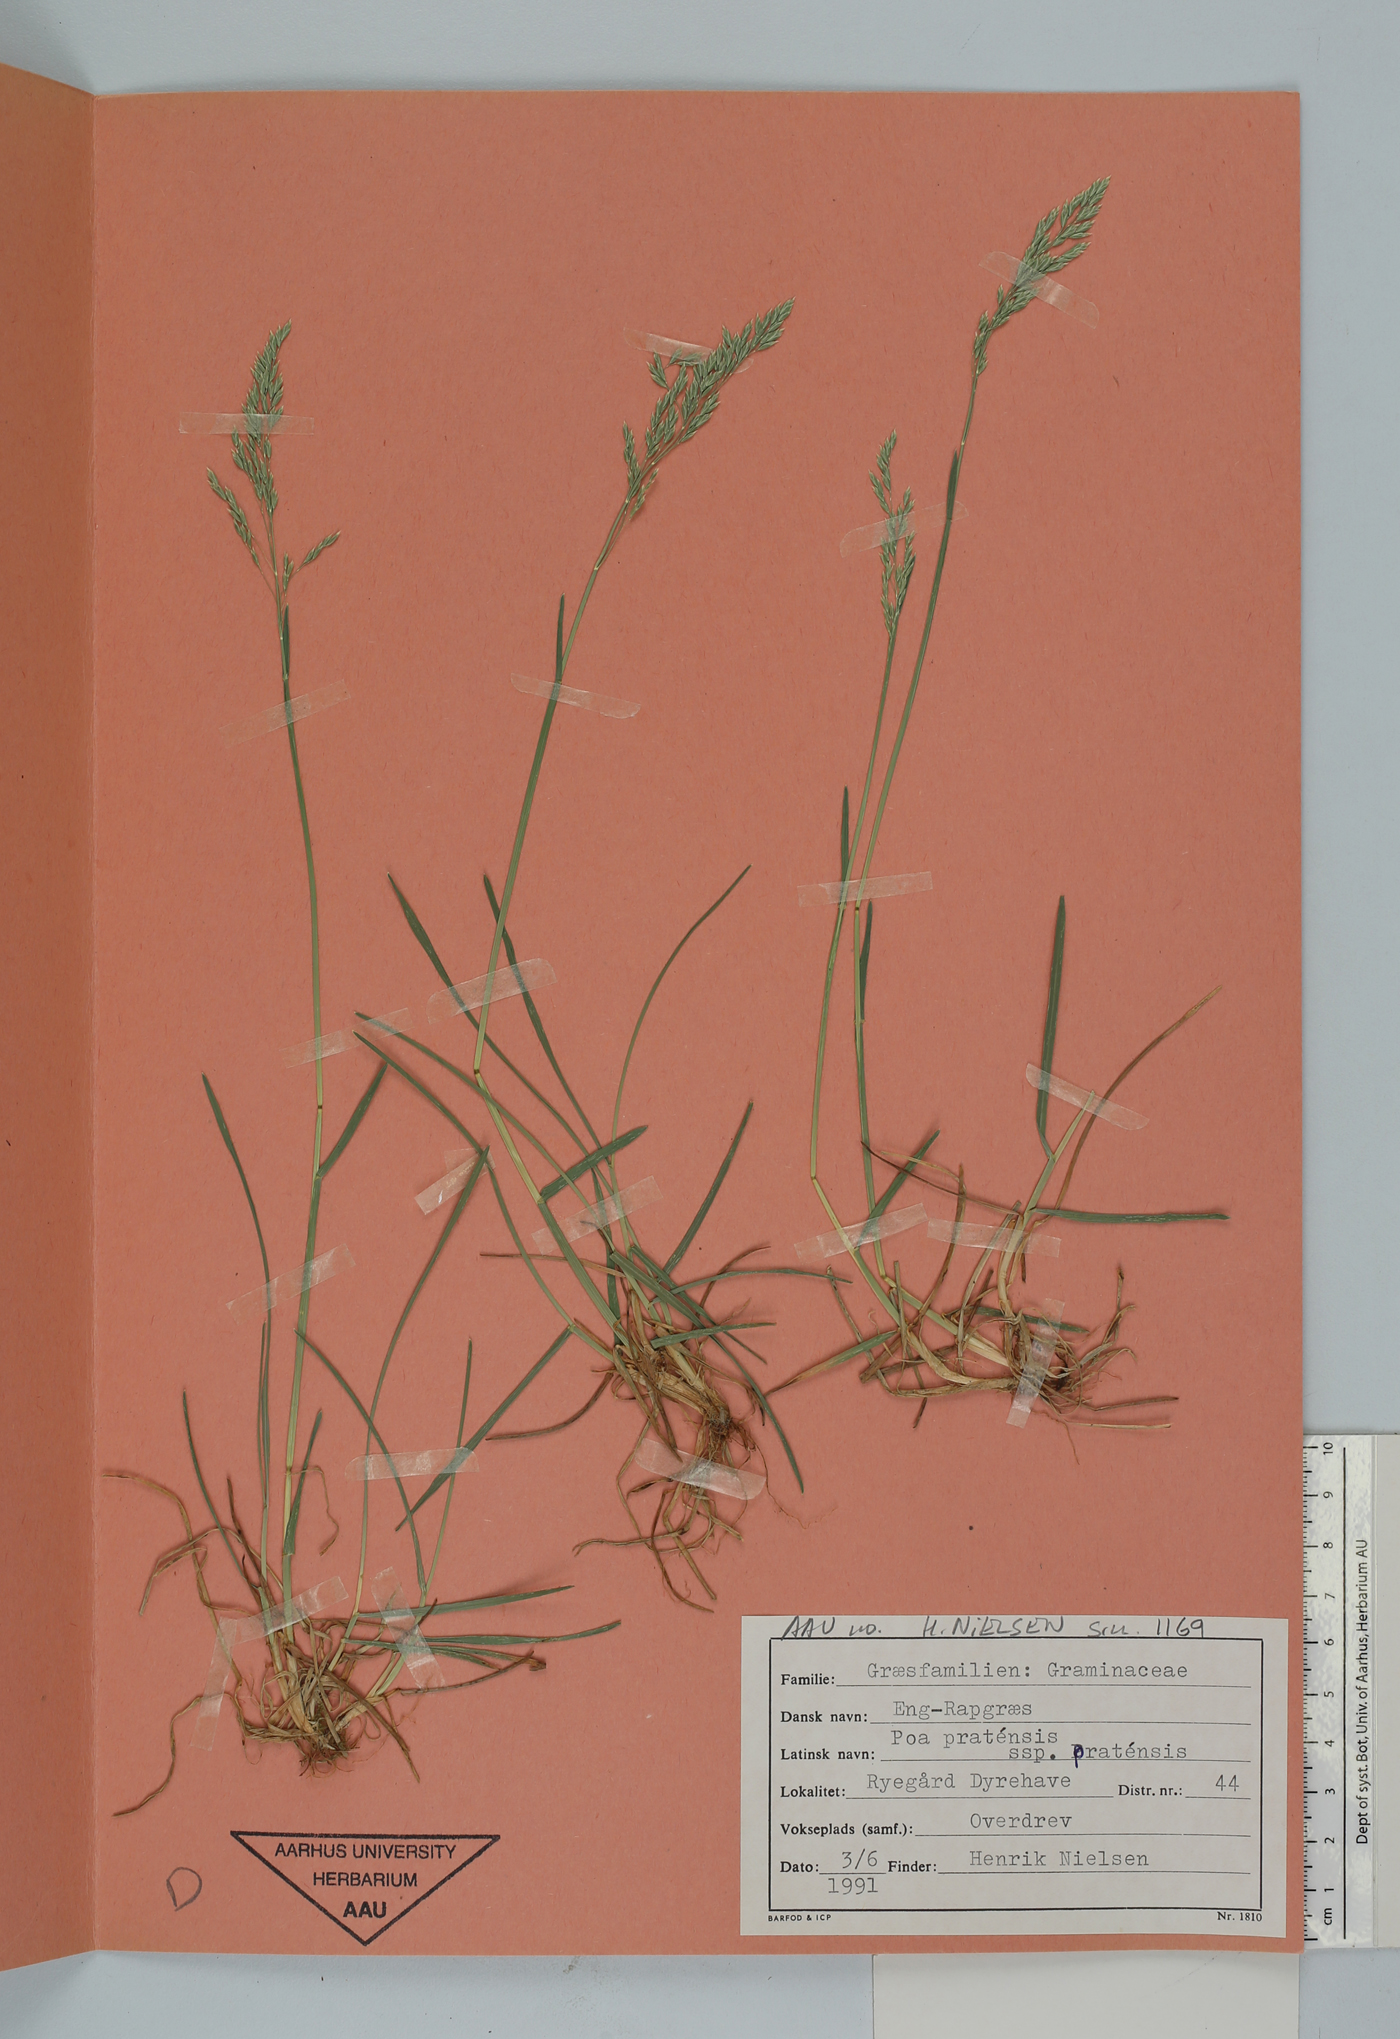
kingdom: Plantae
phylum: Tracheophyta
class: Liliopsida
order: Poales
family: Poaceae
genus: Poa
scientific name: Poa pratensis
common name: Kentucky bluegrass
